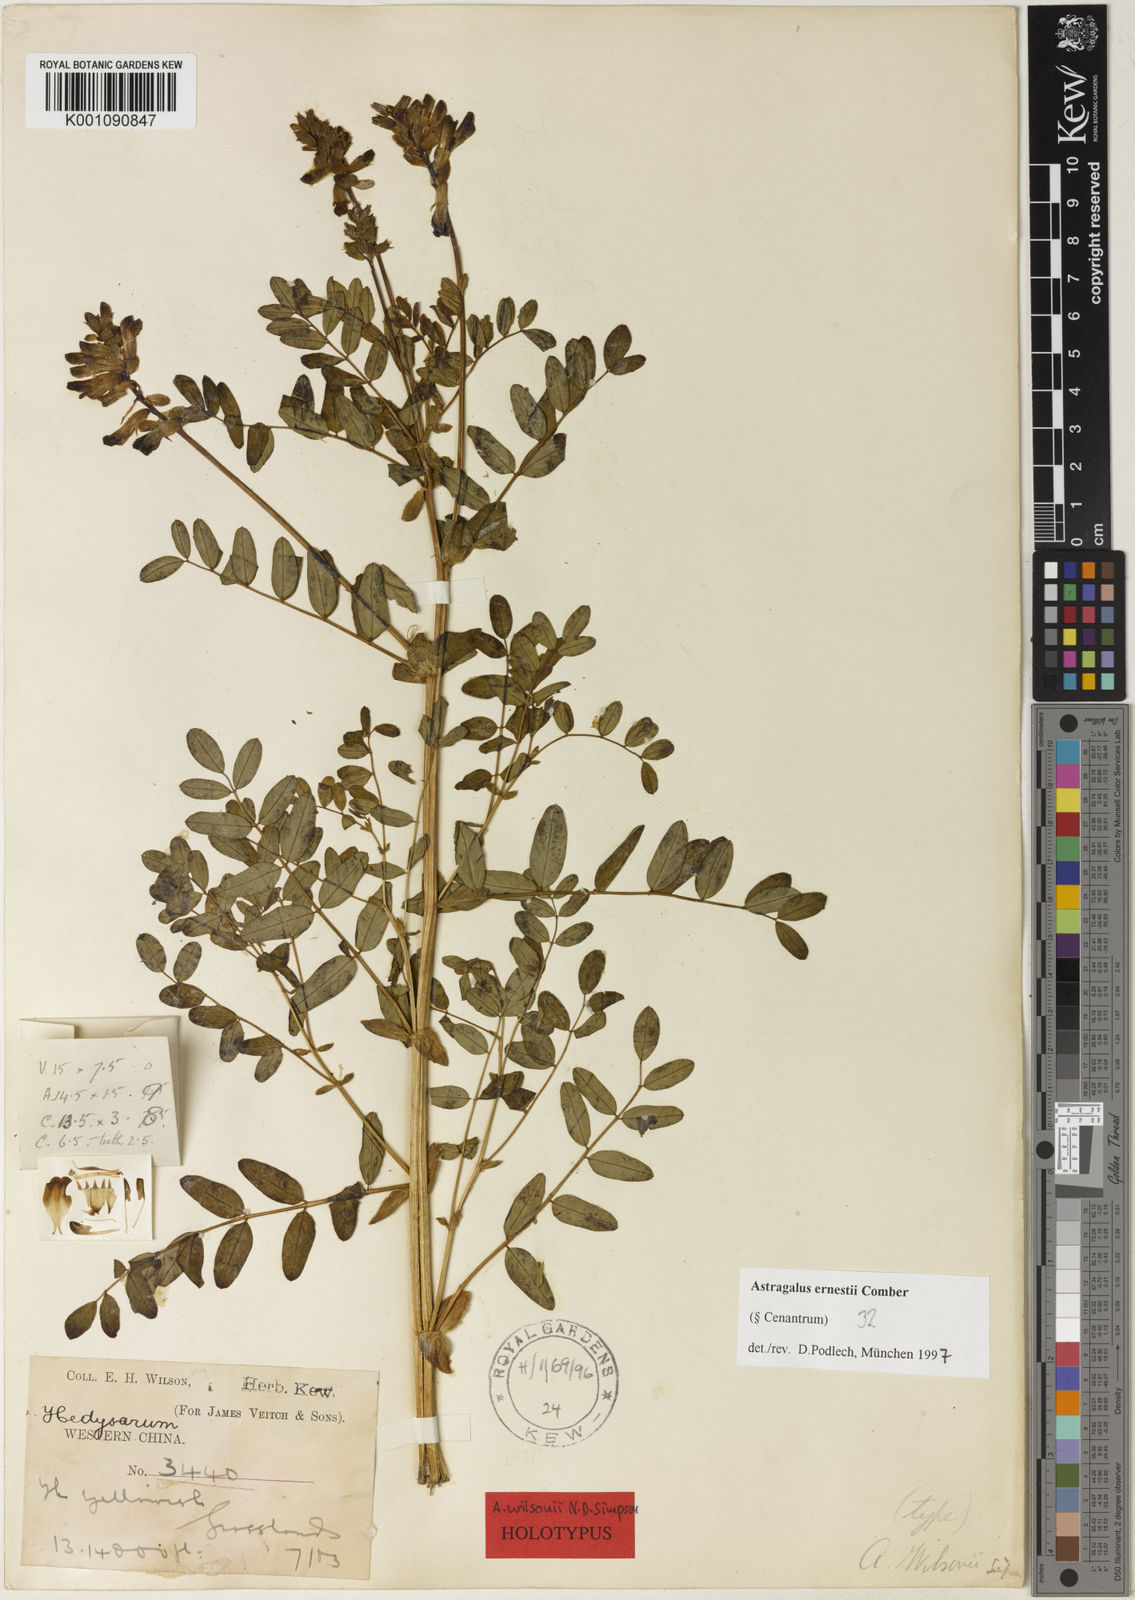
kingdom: Plantae
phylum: Tracheophyta
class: Magnoliopsida
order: Fabales
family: Fabaceae
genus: Astragalus
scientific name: Astragalus
